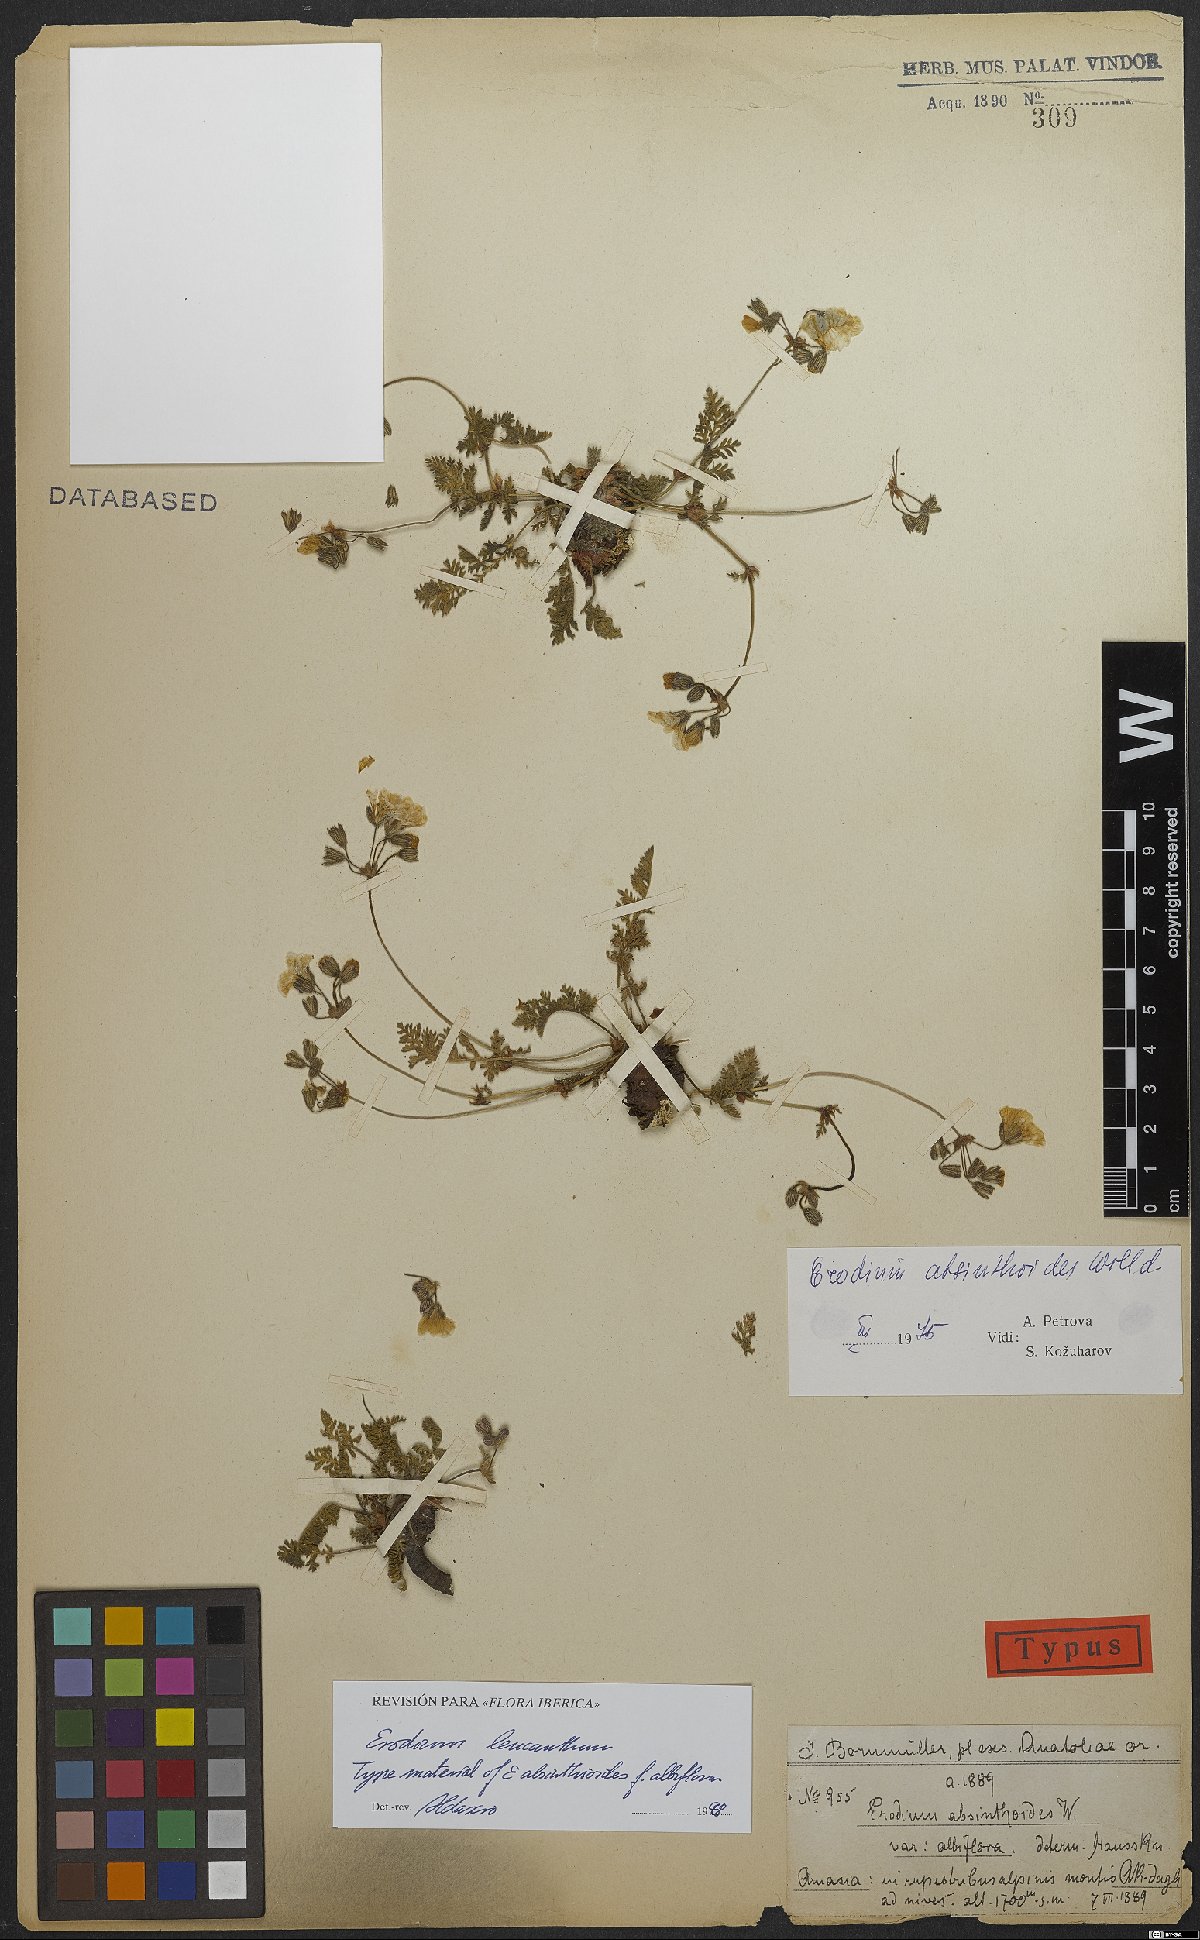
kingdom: Plantae
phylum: Tracheophyta
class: Magnoliopsida
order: Geraniales
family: Geraniaceae
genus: Erodium
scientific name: Erodium trichomanifolium
